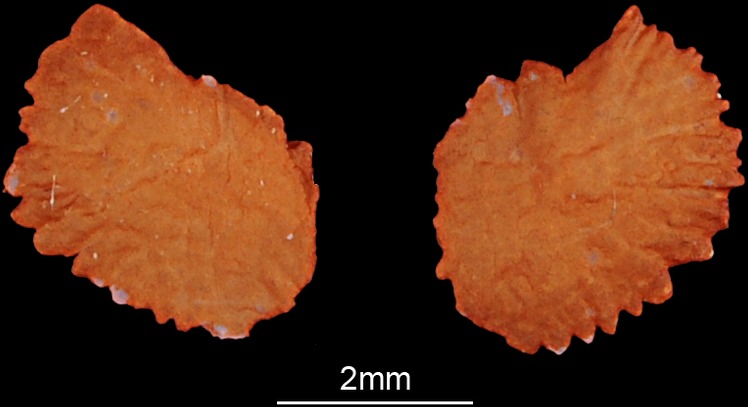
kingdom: Animalia
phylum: Chordata
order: Cypriniformes
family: Cyprinidae
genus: Squalius
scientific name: Squalius cephalus
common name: Chub
